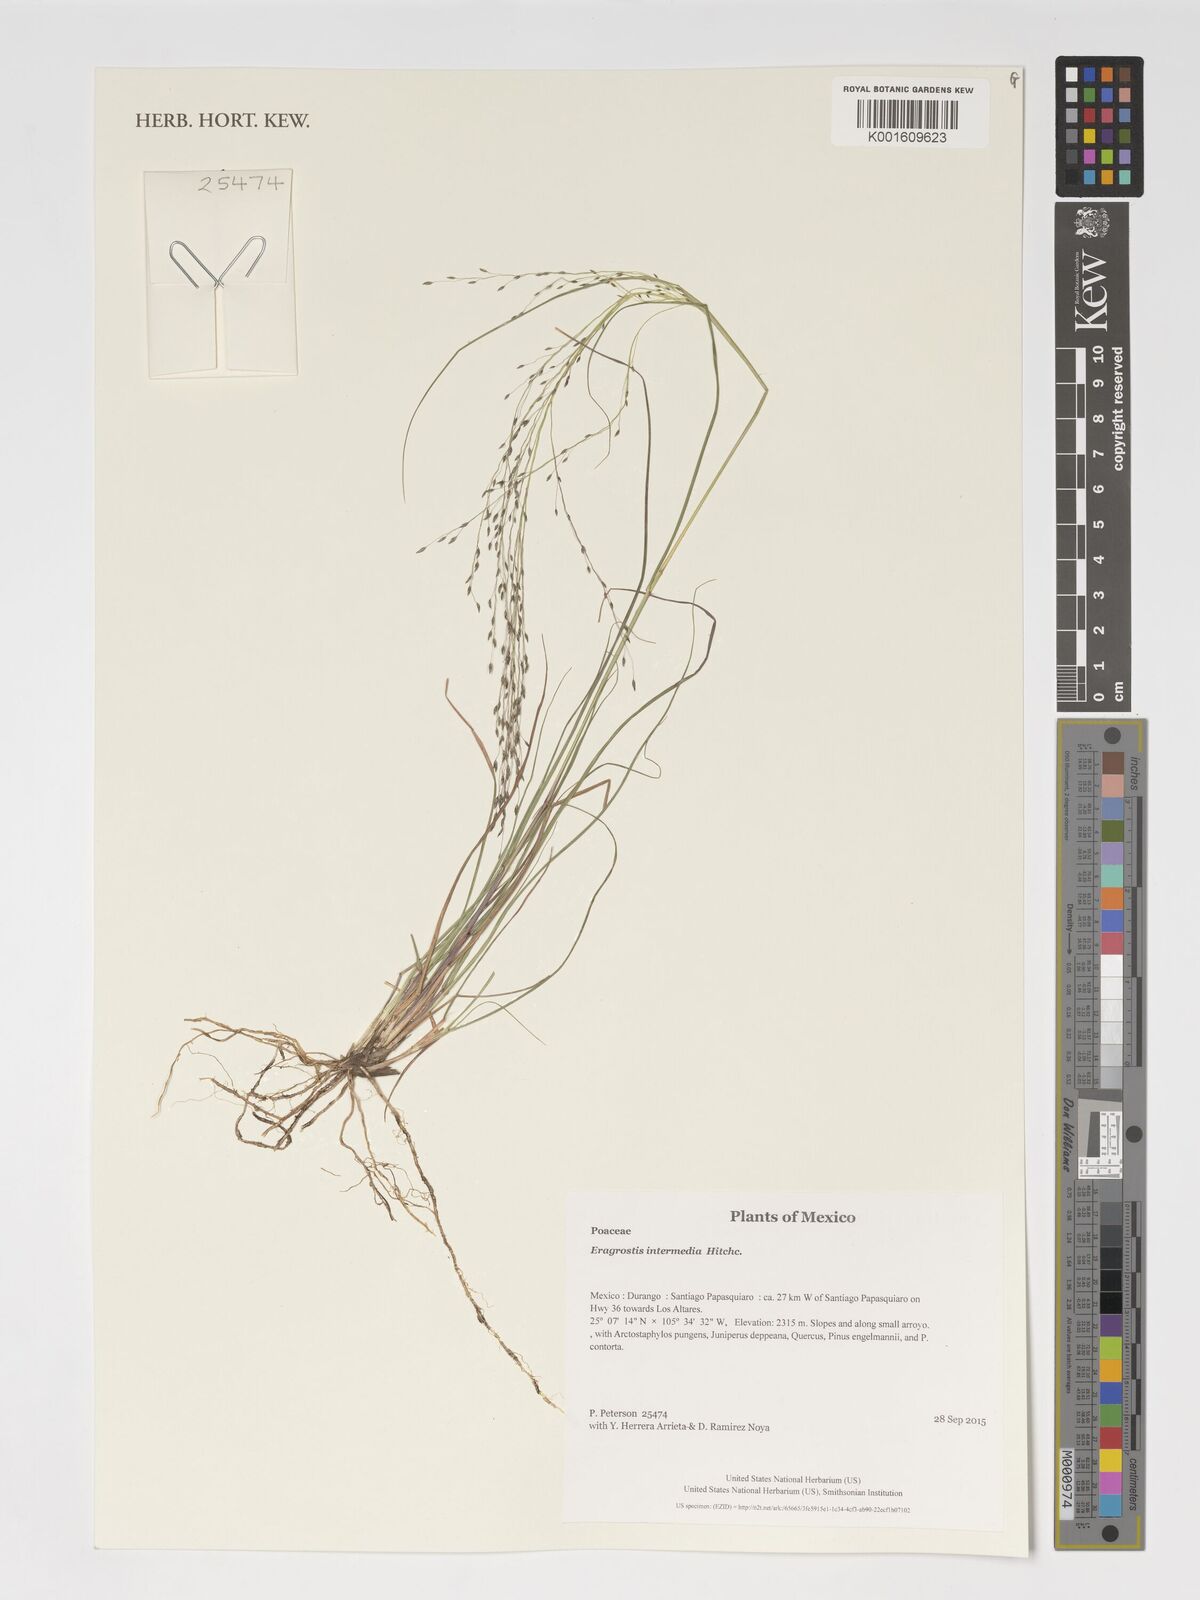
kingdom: Plantae
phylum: Tracheophyta
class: Liliopsida
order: Poales
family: Poaceae
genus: Eragrostis
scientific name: Eragrostis intermedia
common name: Plains love grass
